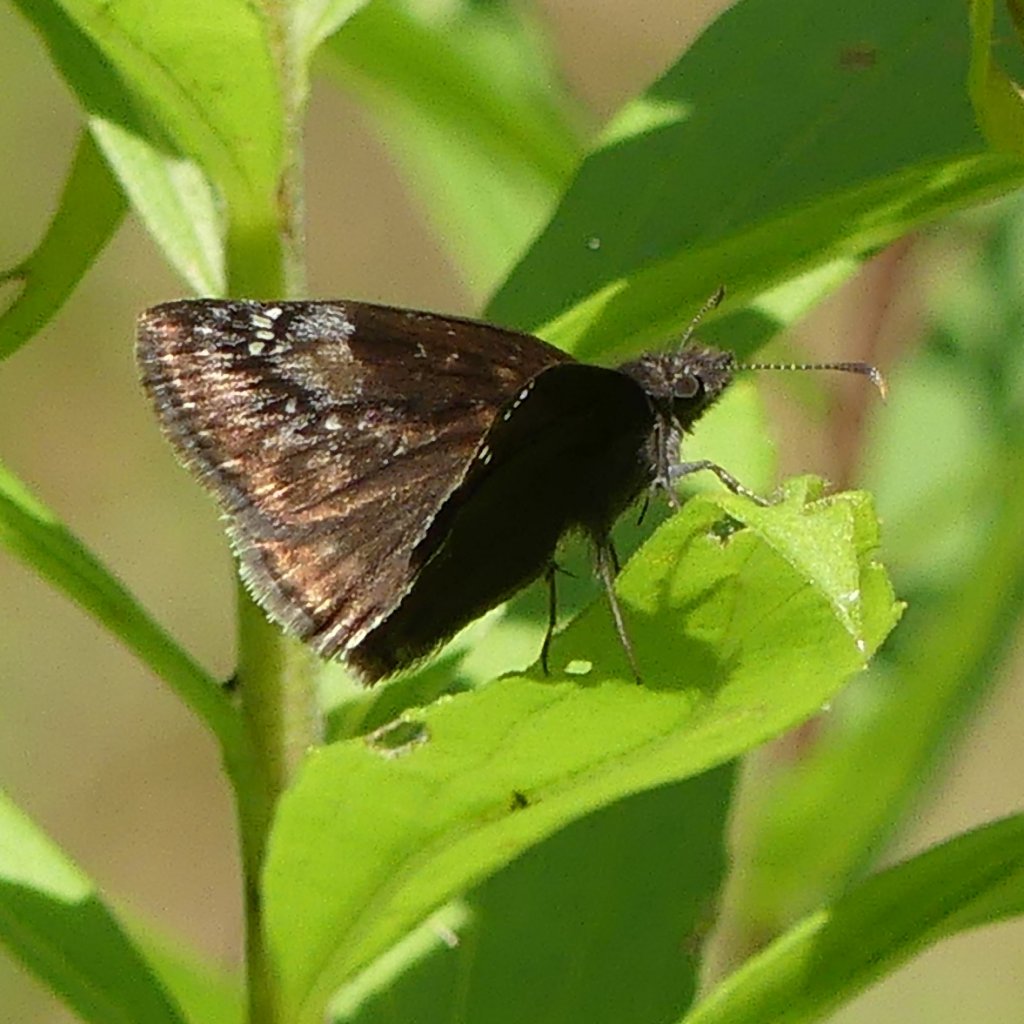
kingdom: Animalia
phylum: Arthropoda
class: Insecta
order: Lepidoptera
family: Hesperiidae
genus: Gesta
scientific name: Gesta
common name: Wild Indigo Duskywing
